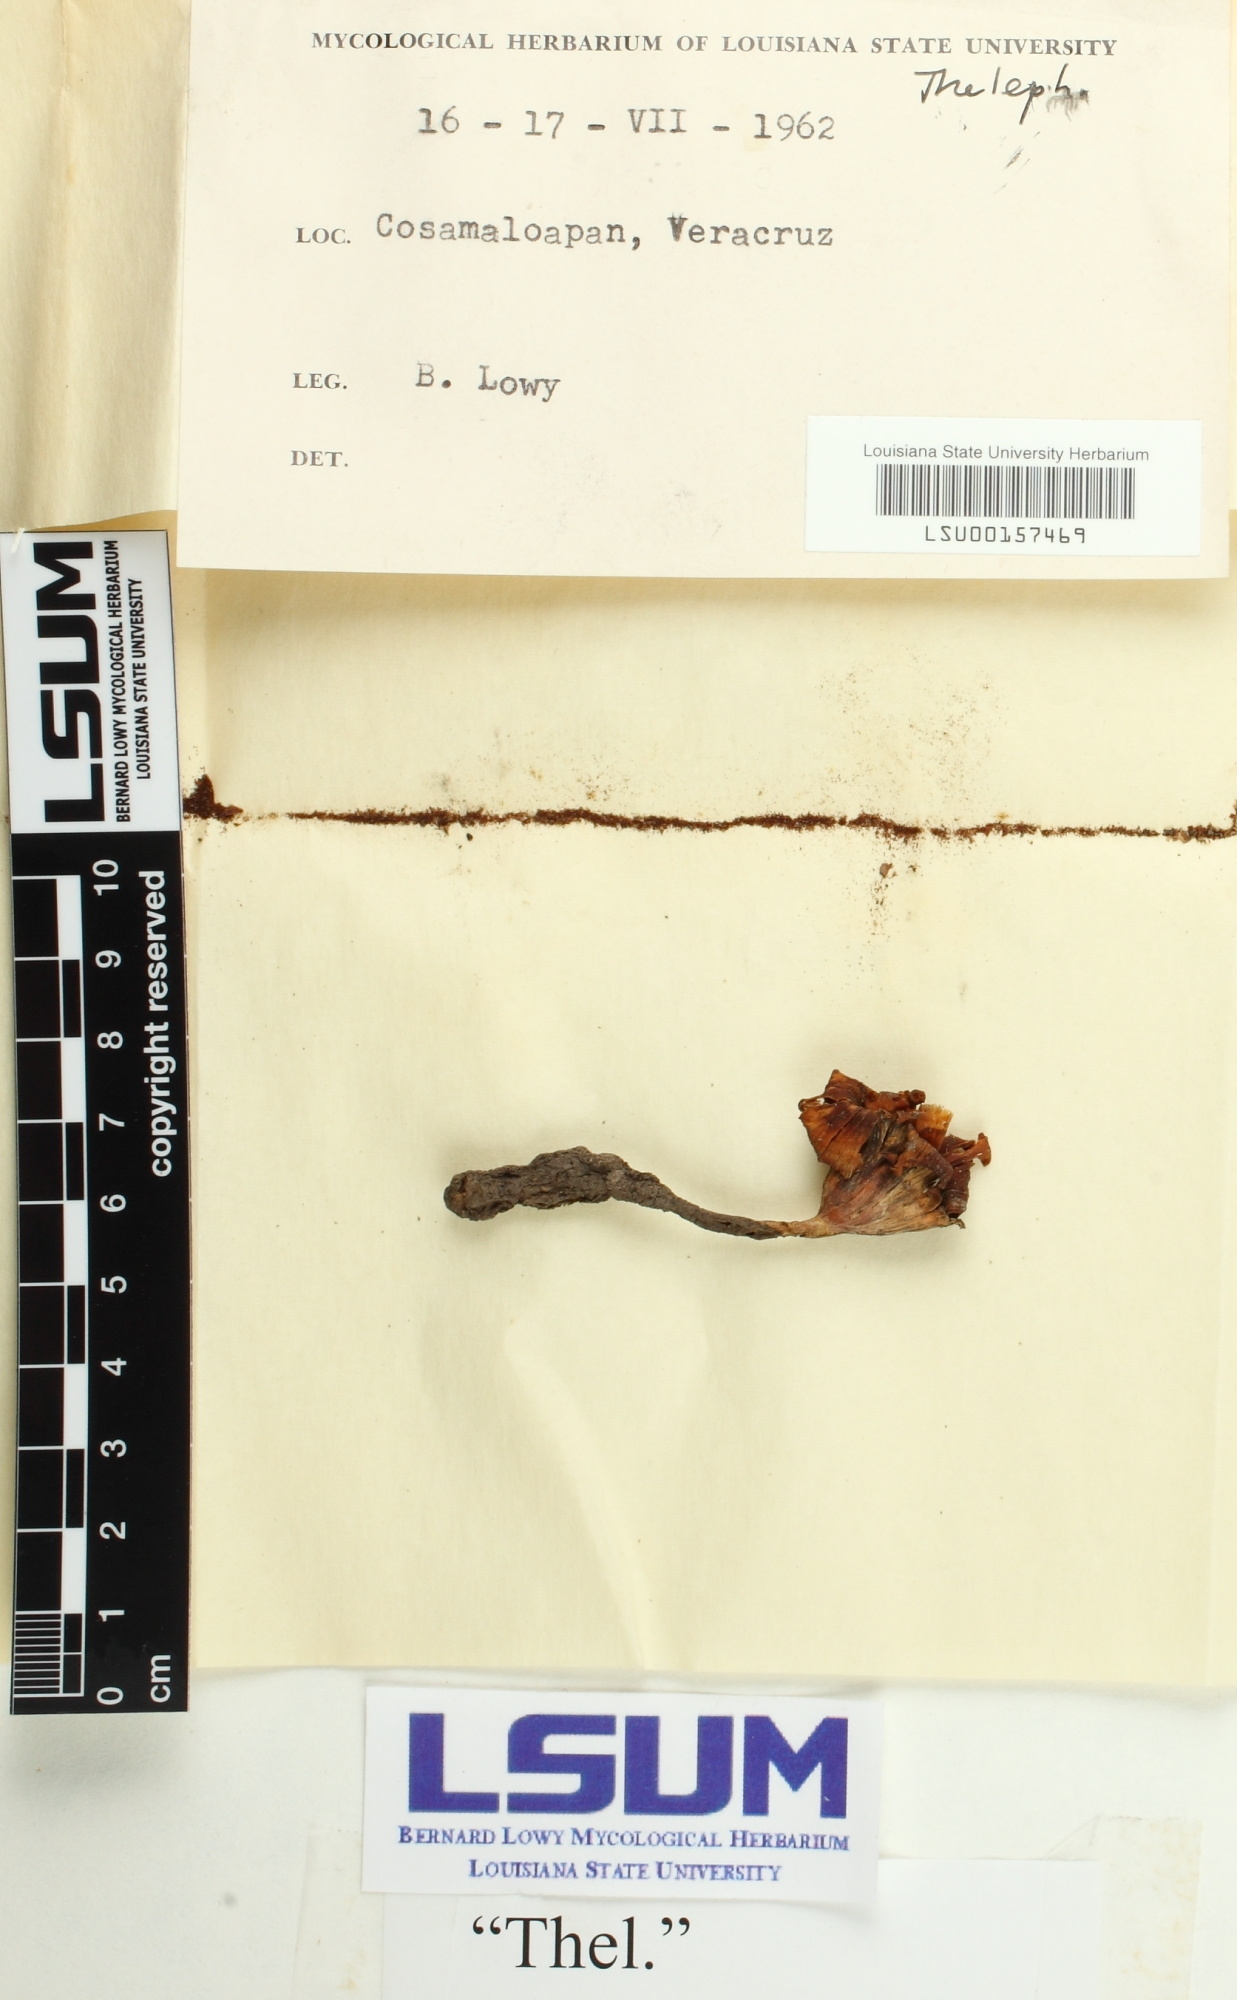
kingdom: Fungi
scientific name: Fungi
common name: Fungi
